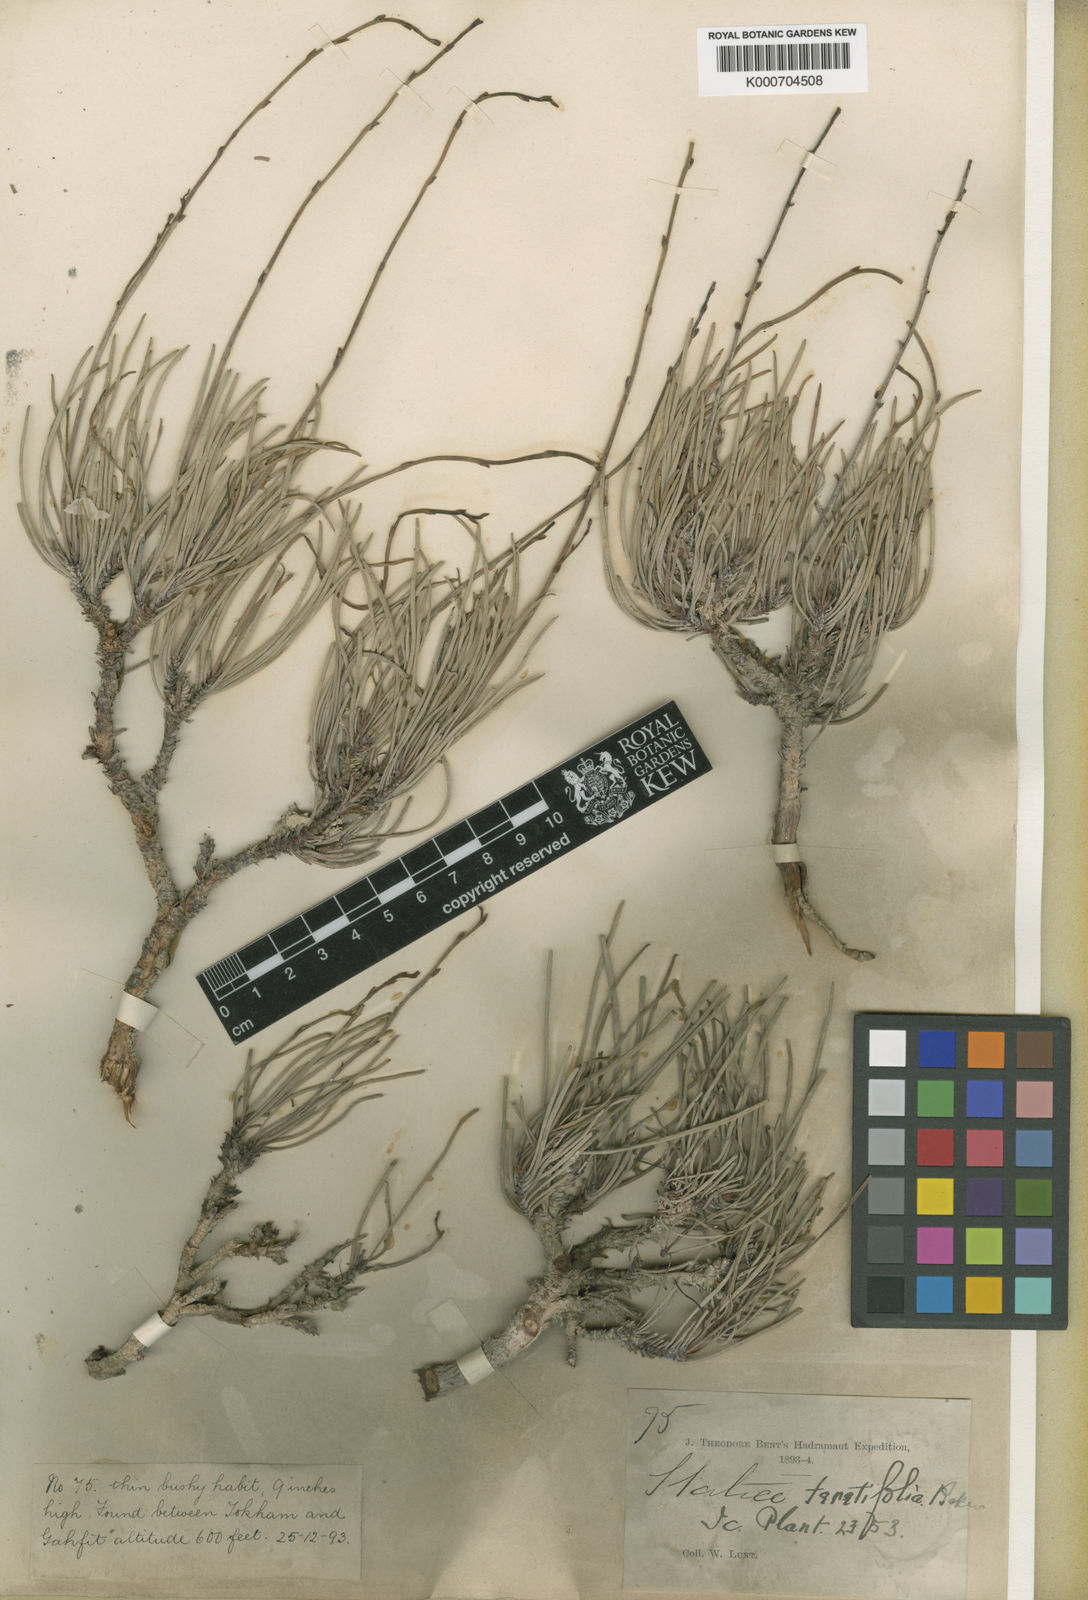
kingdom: Plantae
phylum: Tracheophyta
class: Magnoliopsida
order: Caryophyllales
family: Plumbaginaceae
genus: Limonium
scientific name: Limonium teretifolium
